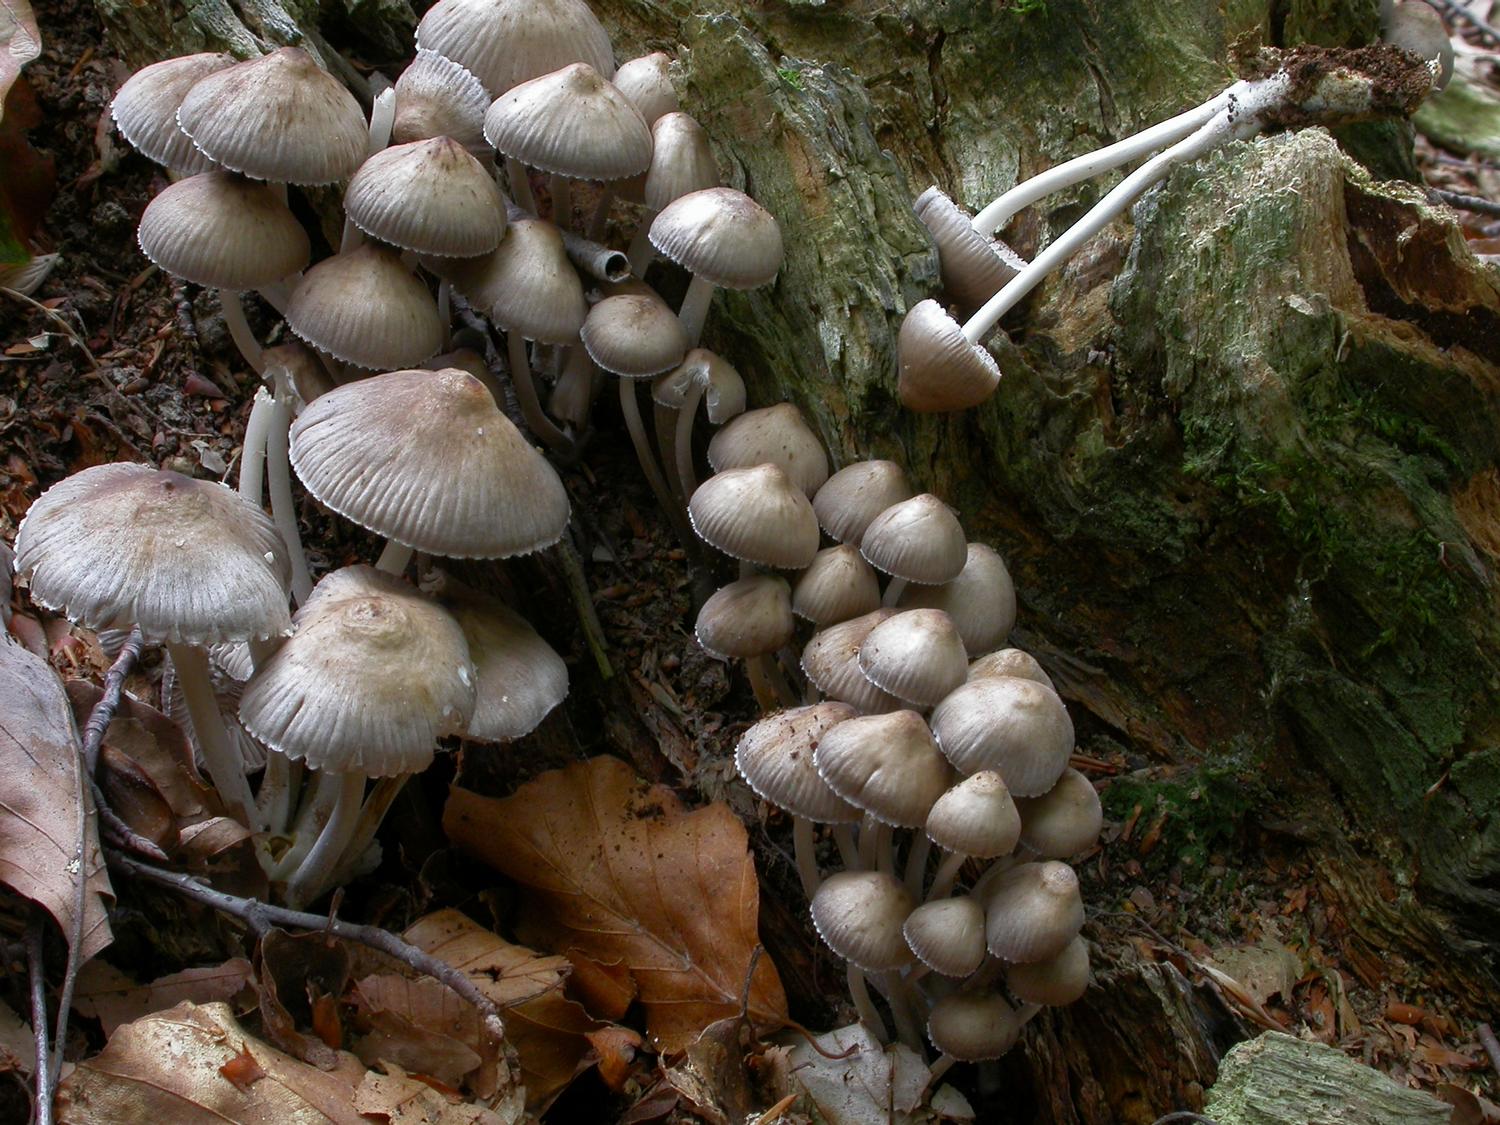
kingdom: Fungi
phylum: Basidiomycota
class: Agaricomycetes
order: Agaricales
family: Mycenaceae
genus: Mycena
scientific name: Mycena inclinata
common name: nikkende huesvamp
